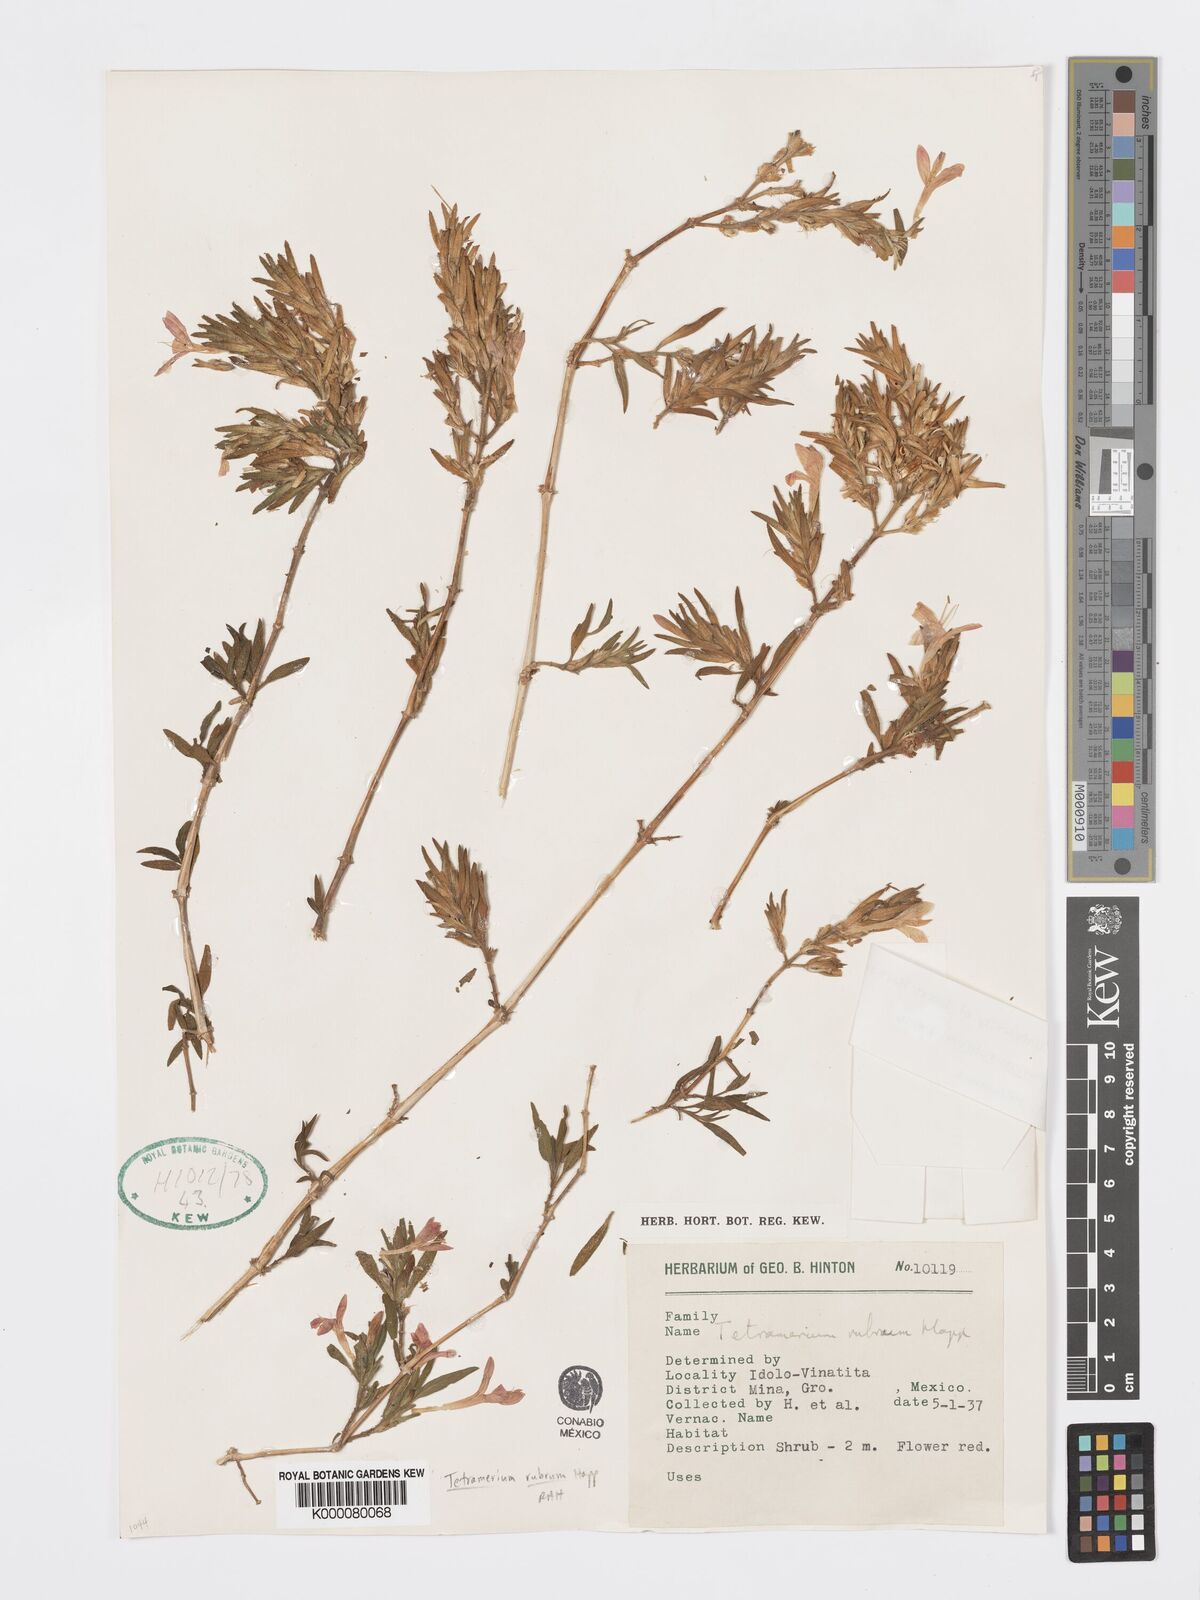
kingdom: Plantae
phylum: Tracheophyta
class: Magnoliopsida
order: Lamiales
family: Acanthaceae
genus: Tetramerium
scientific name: Tetramerium
